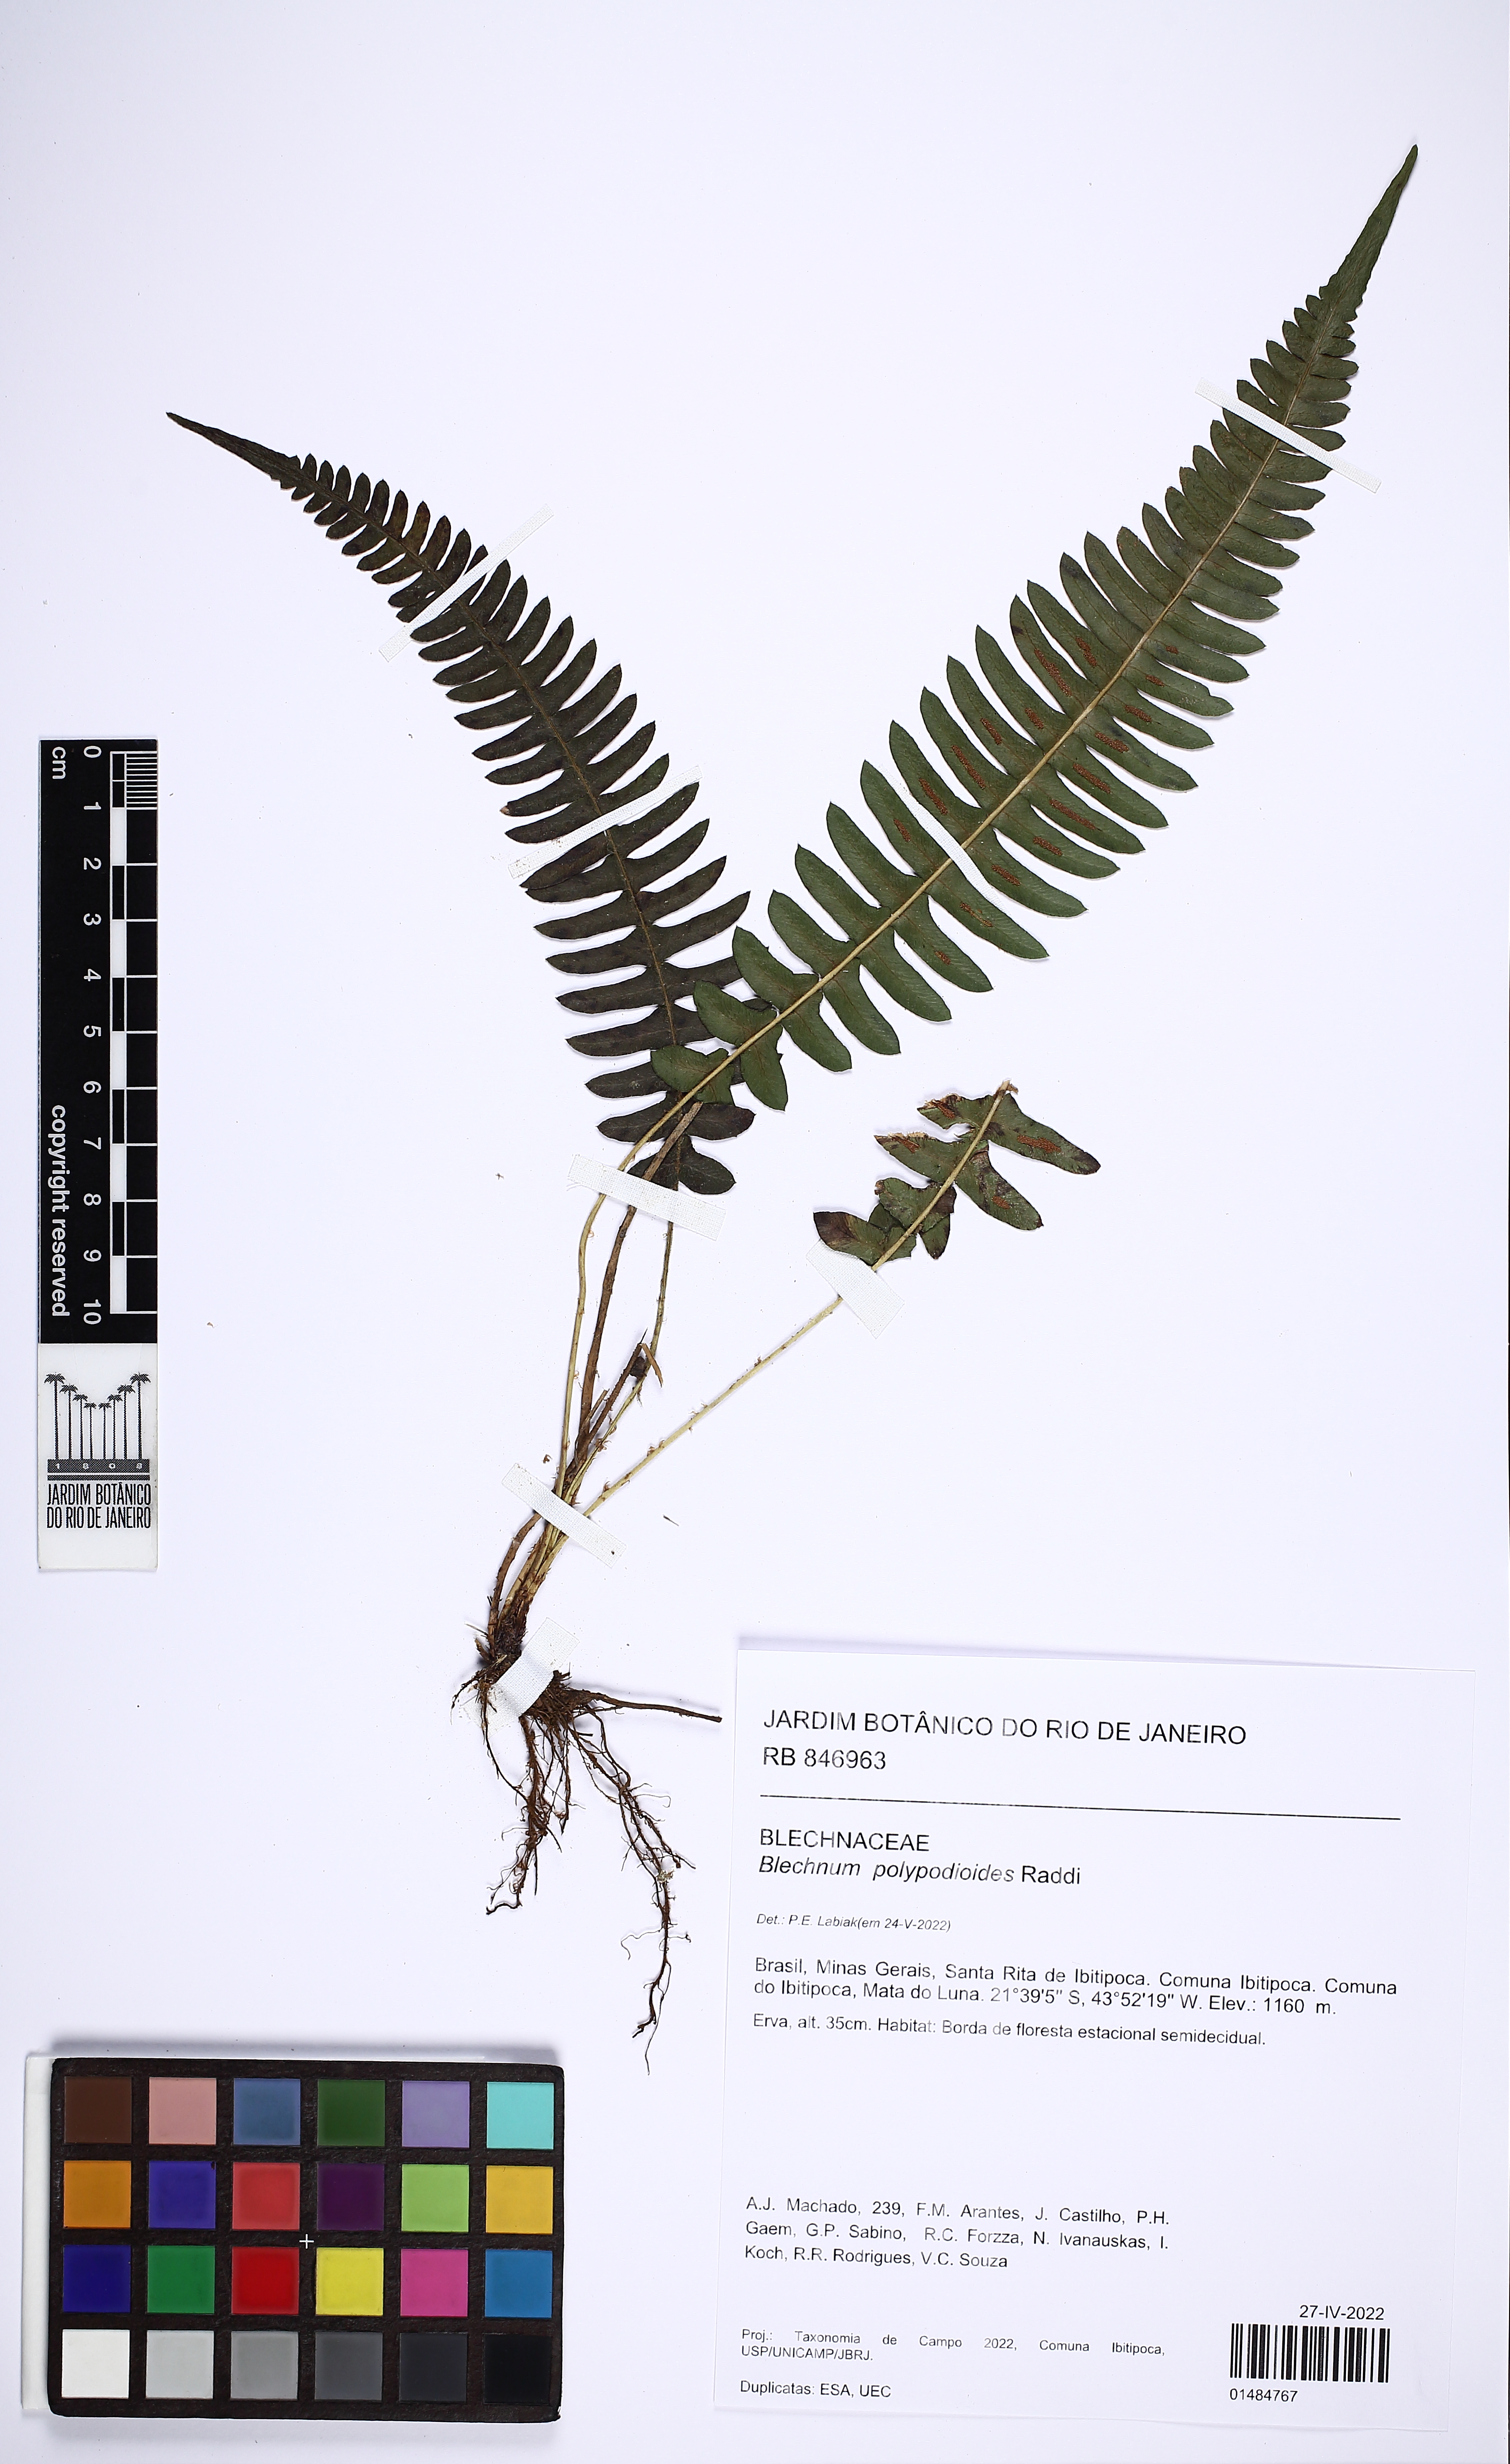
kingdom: Plantae
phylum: Tracheophyta
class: Polypodiopsida
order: Polypodiales
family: Blechnaceae
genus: Blechnum
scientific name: Blechnum polypodioides
